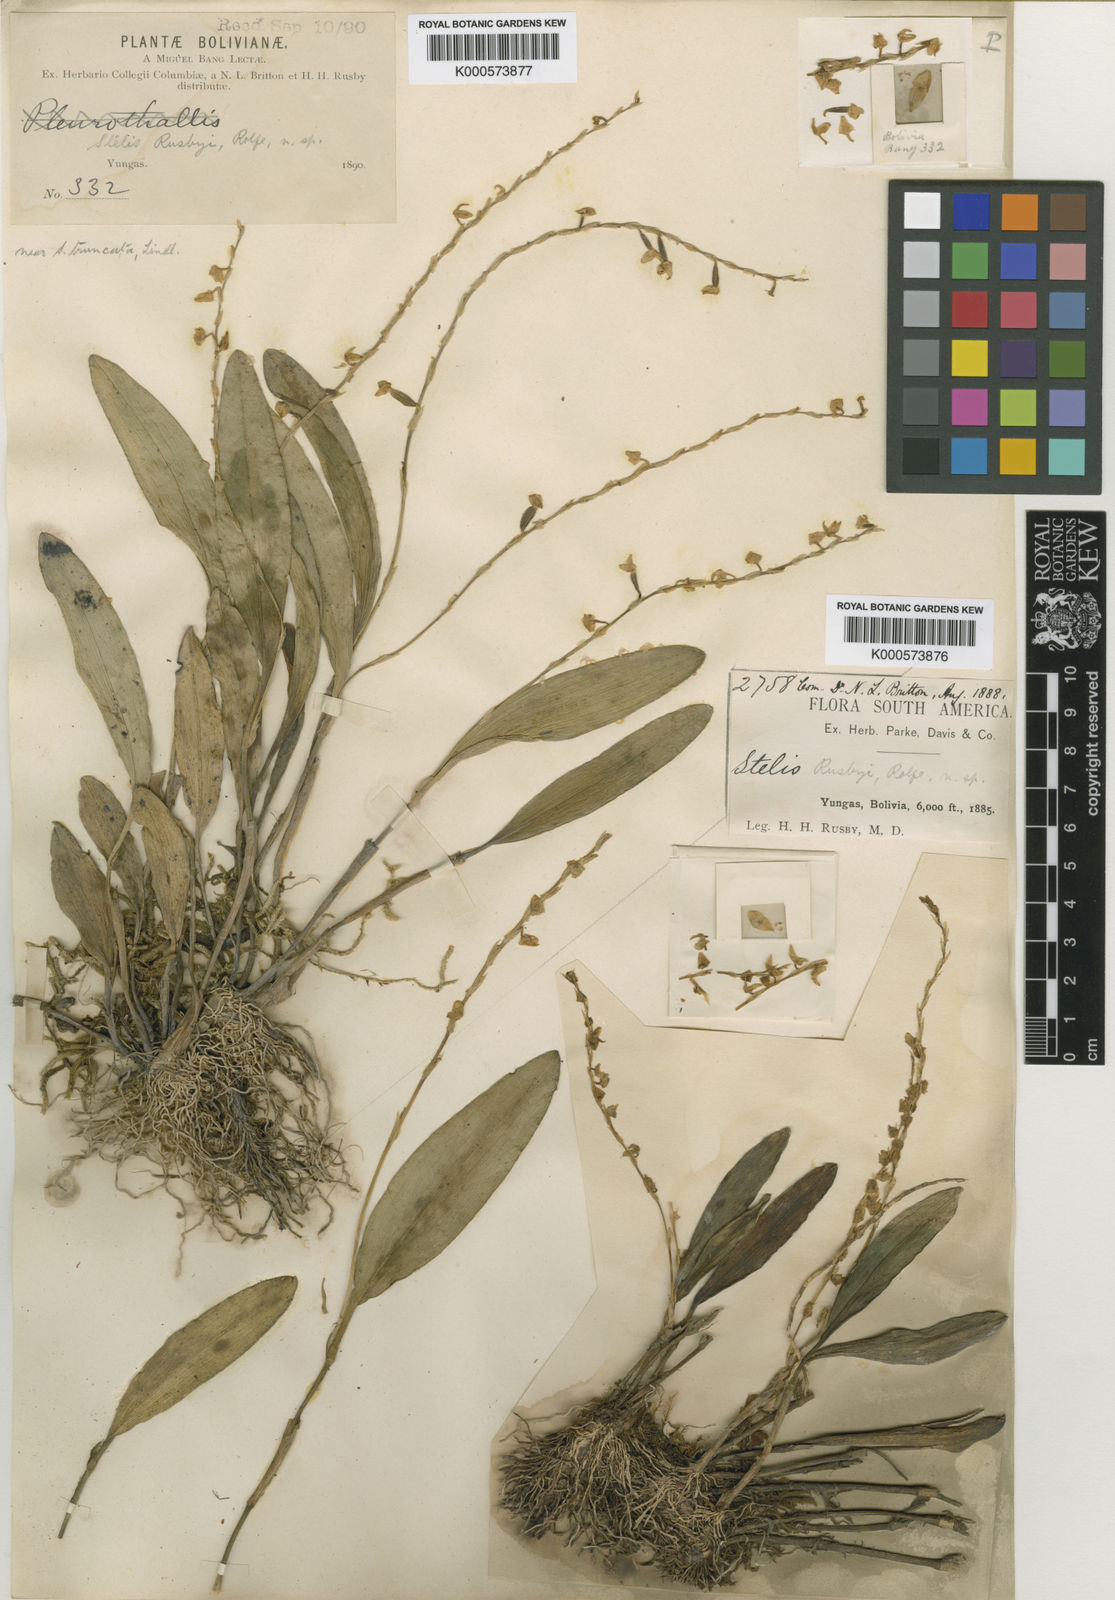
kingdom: Plantae
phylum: Tracheophyta
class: Liliopsida
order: Asparagales
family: Orchidaceae
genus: Stelis
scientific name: Stelis purpurea
